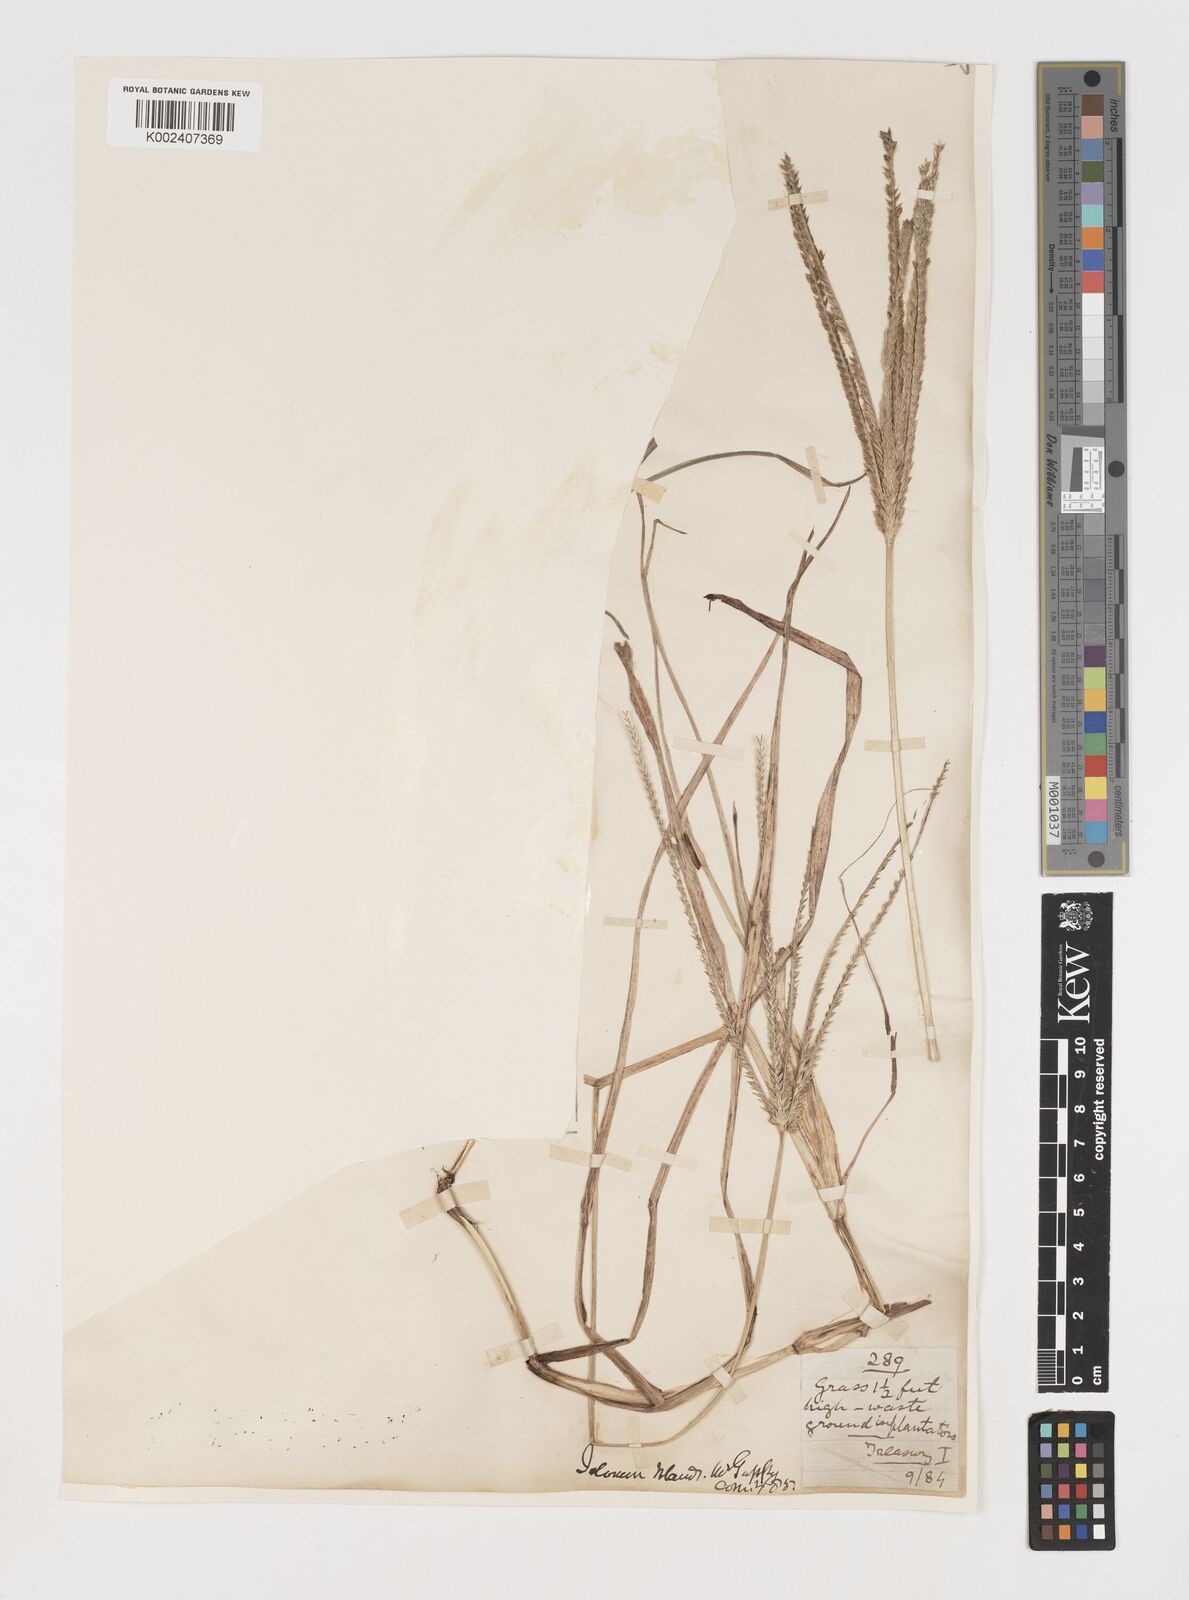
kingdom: Plantae
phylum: Tracheophyta
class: Liliopsida
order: Poales
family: Poaceae
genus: Eleusine
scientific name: Eleusine indica
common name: Yard-grass
